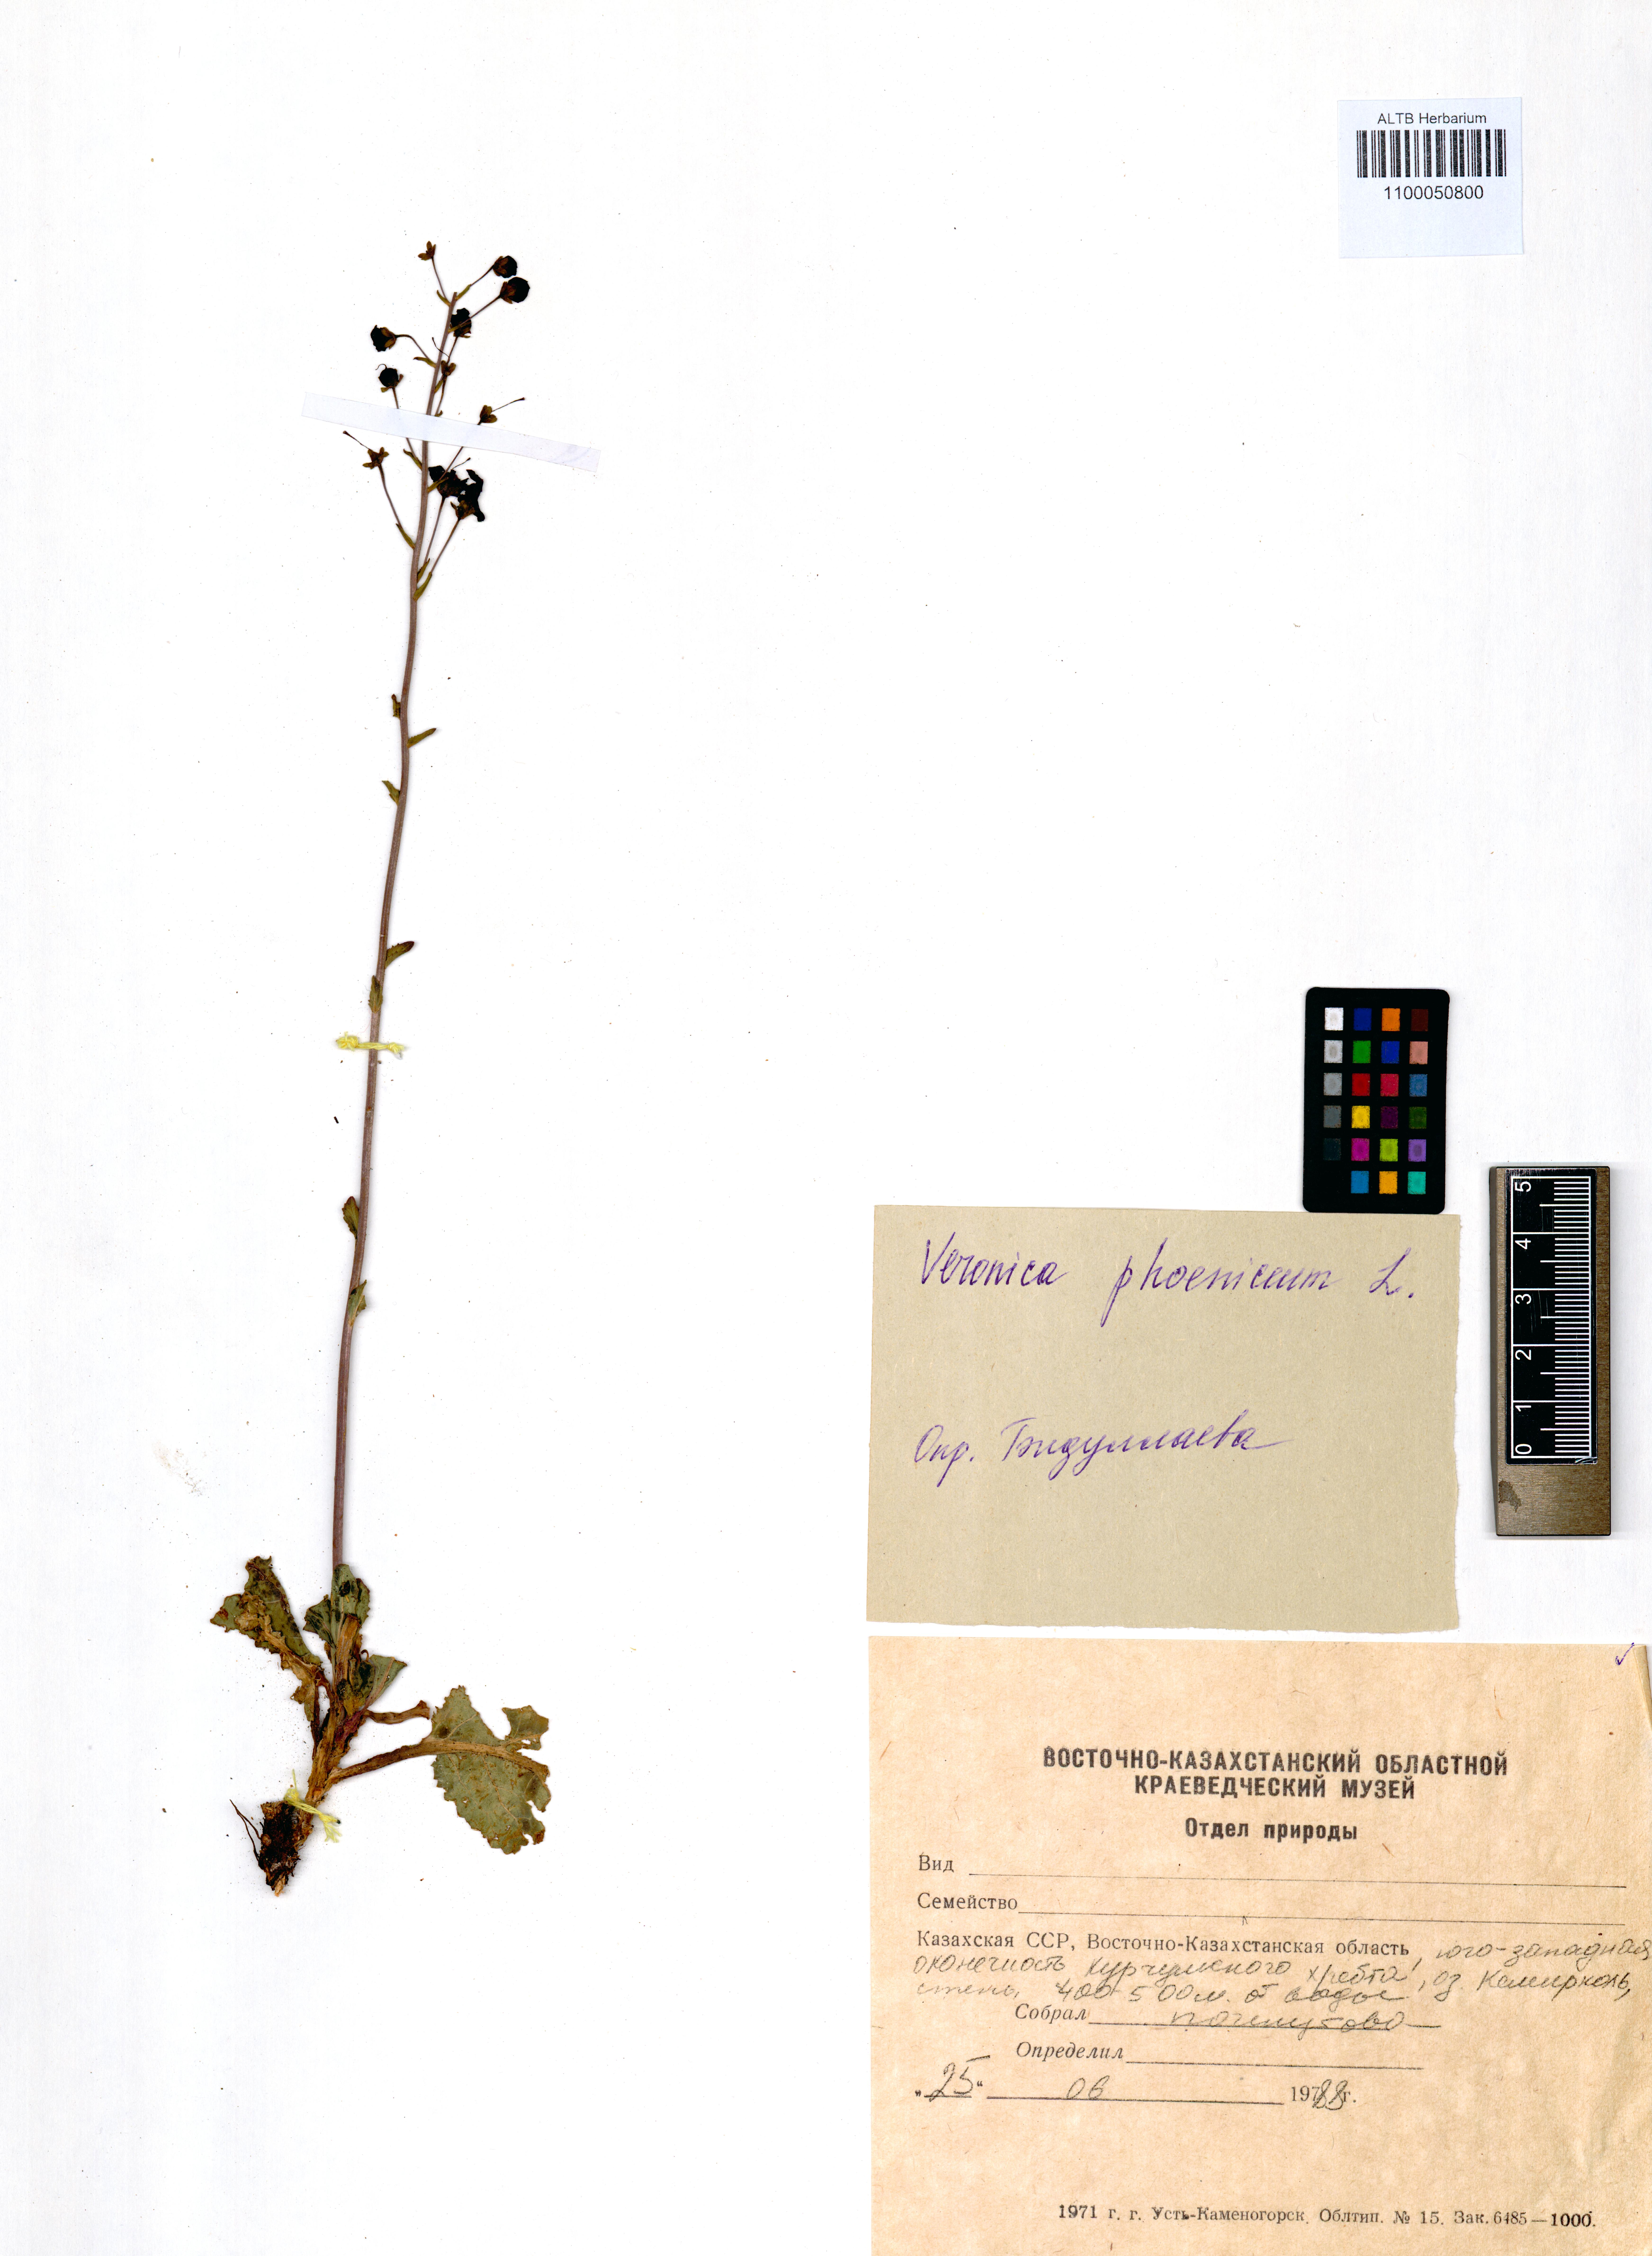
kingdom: Plantae
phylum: Tracheophyta
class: Magnoliopsida
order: Lamiales
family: Scrophulariaceae
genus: Verbascum
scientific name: Verbascum phoeniceum
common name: Purple mullein
